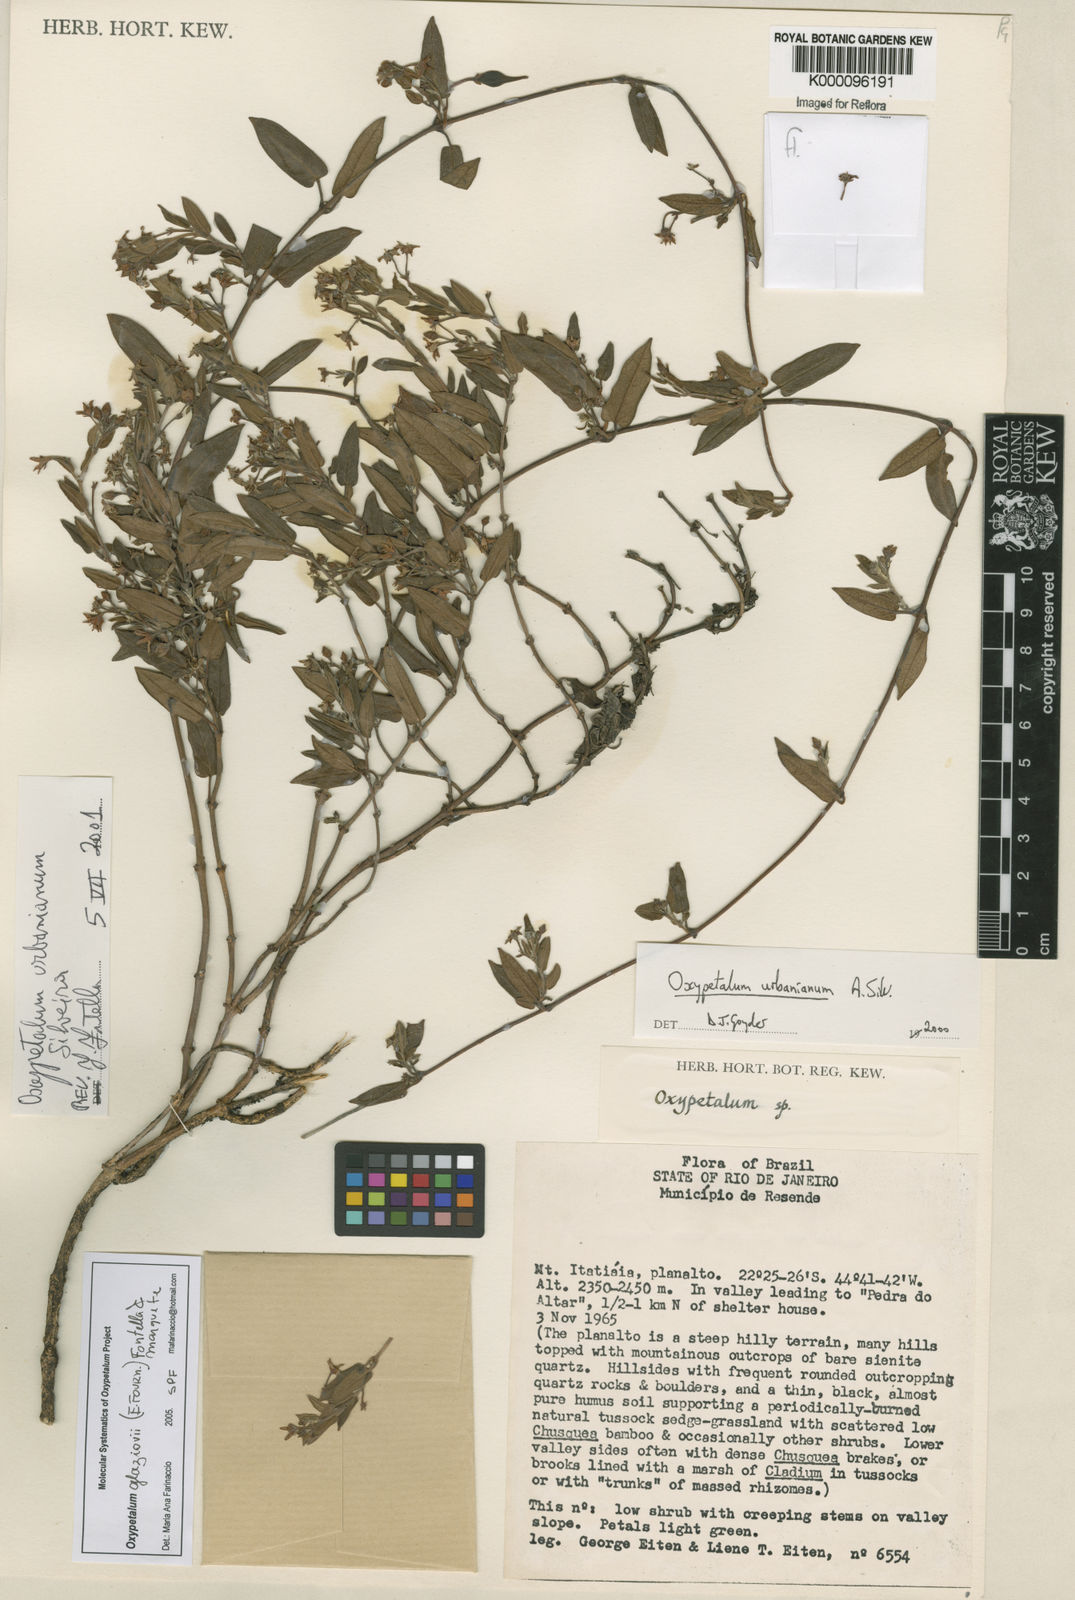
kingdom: Plantae
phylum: Tracheophyta
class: Magnoliopsida
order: Gentianales
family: Apocynaceae
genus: Oxypetalum
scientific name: Oxypetalum glaziovii
